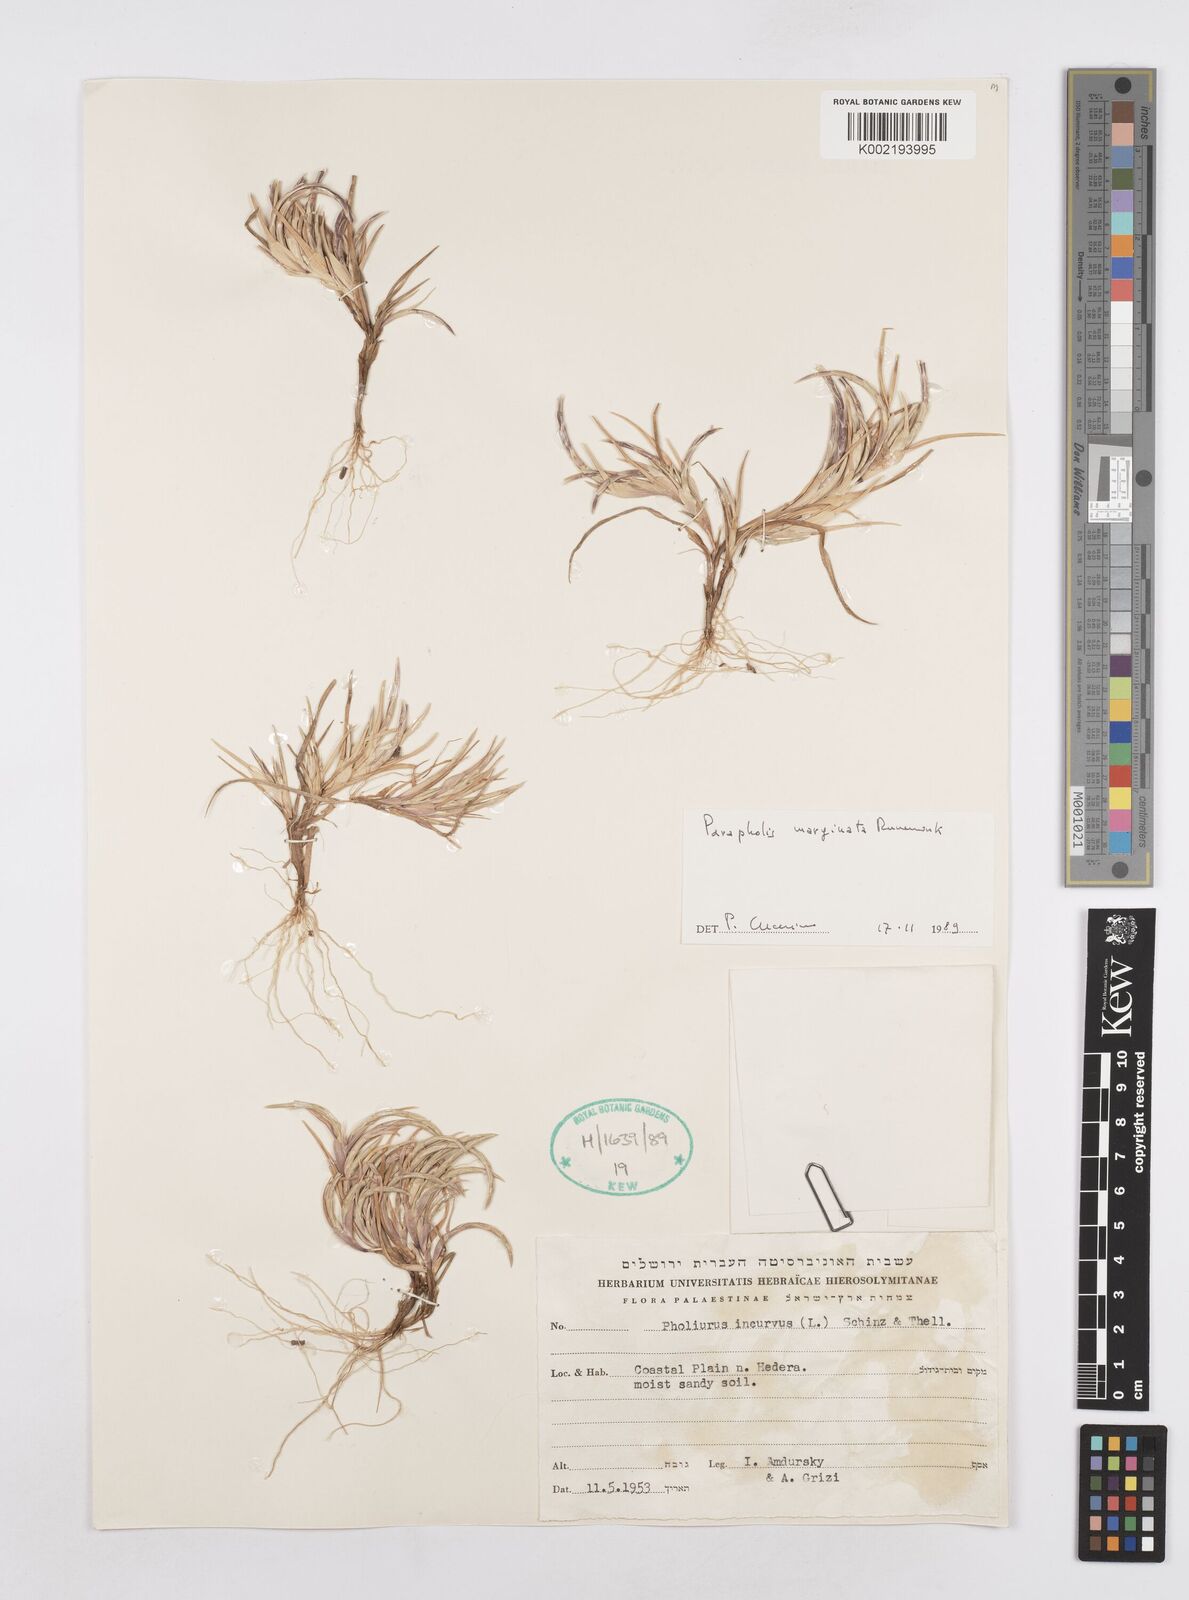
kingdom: Plantae
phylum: Tracheophyta
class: Liliopsida
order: Poales
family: Poaceae
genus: Parapholis
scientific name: Parapholis marginata
